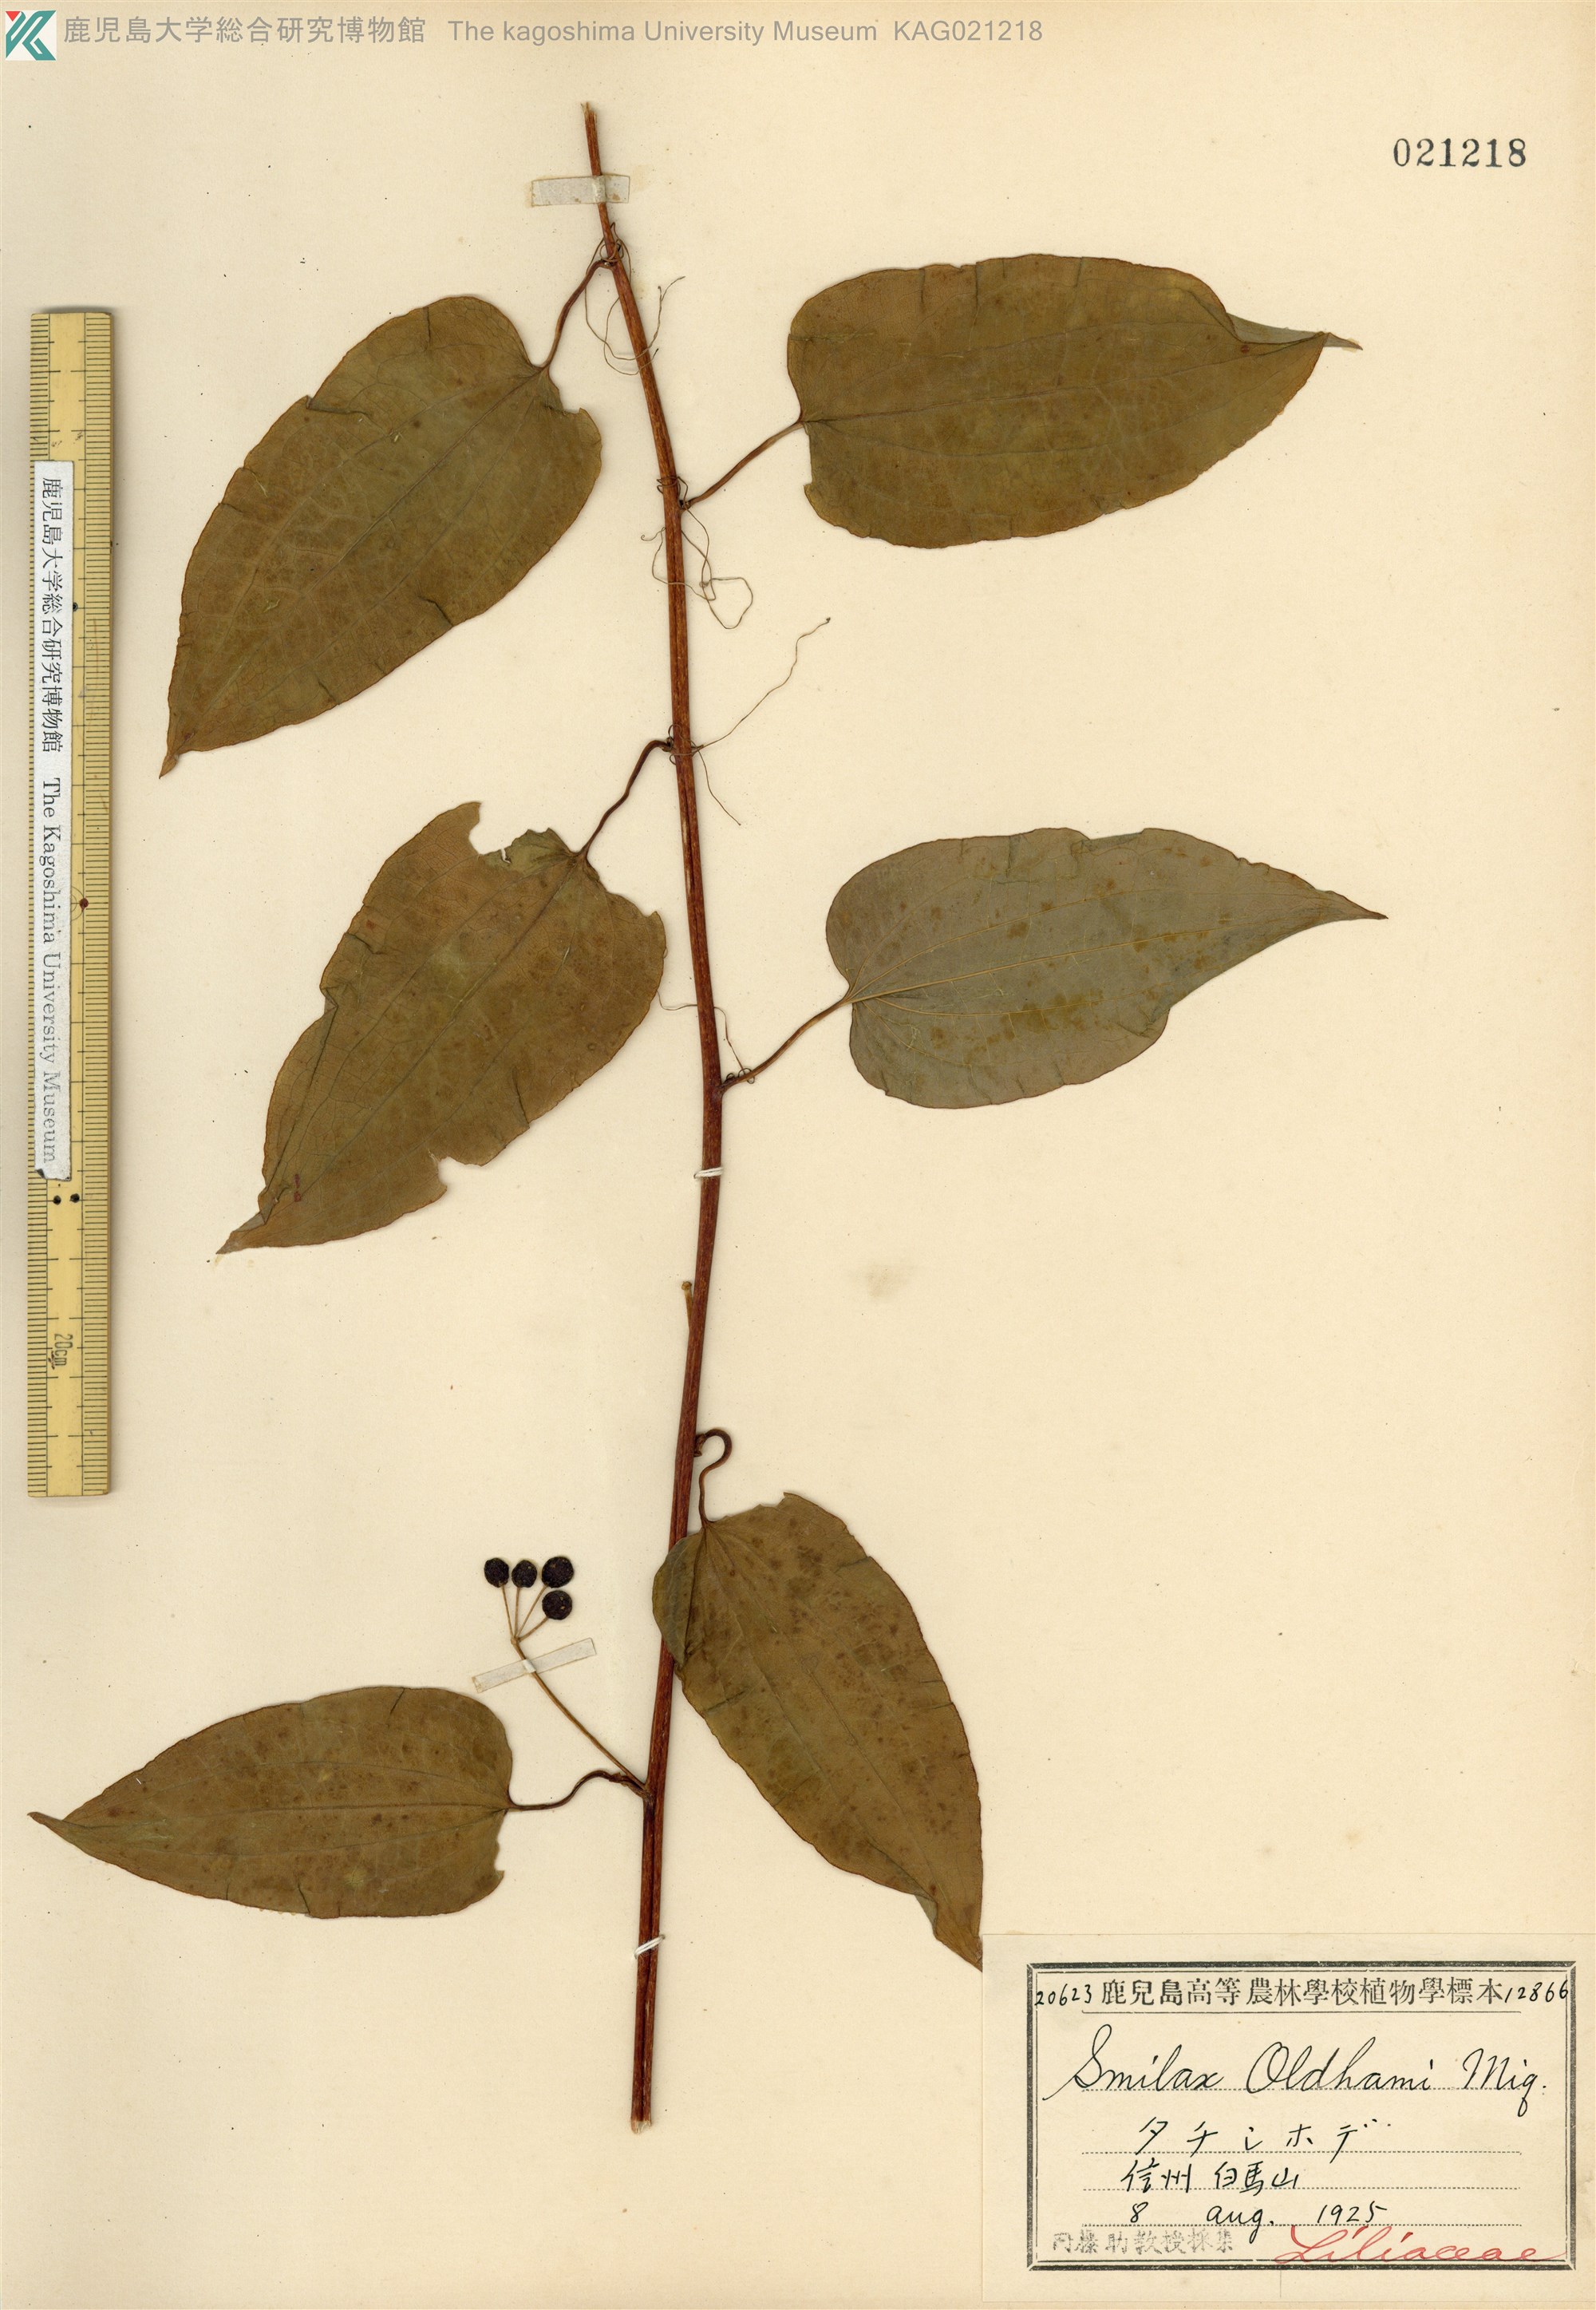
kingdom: Plantae
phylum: Tracheophyta
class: Liliopsida
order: Liliales
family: Smilacaceae
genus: Smilax
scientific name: Smilax nipponica
